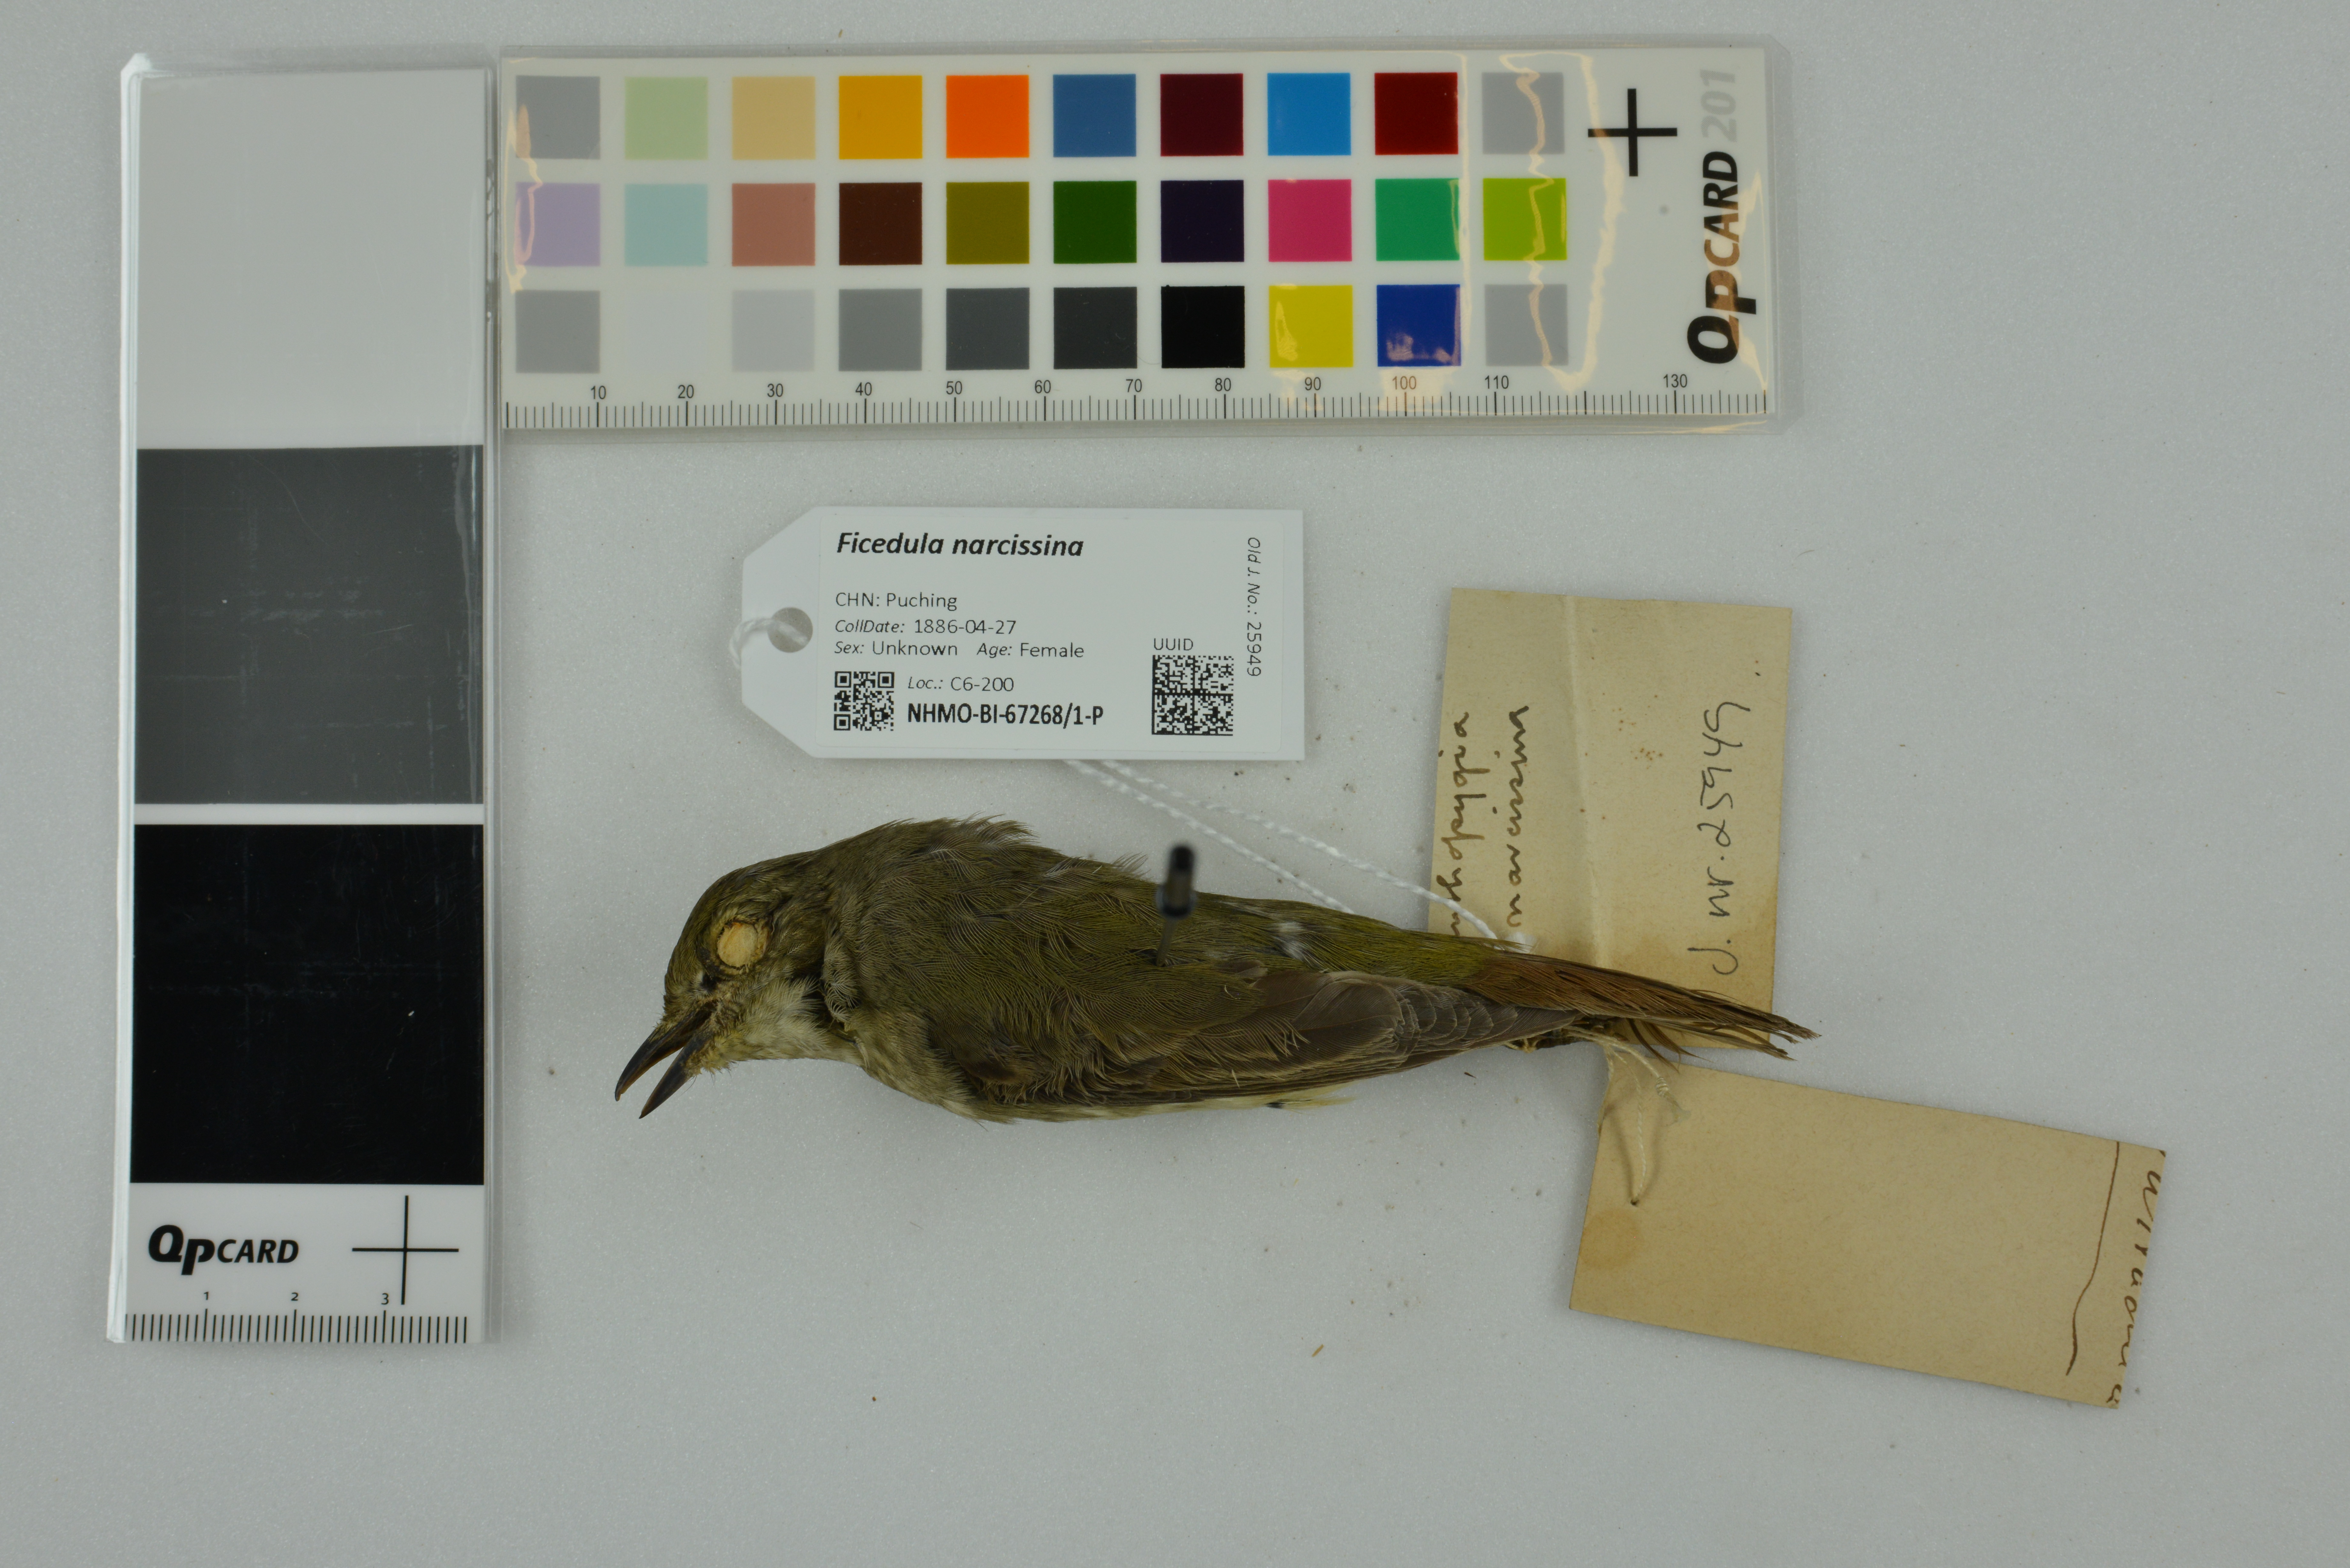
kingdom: Animalia
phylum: Chordata
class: Aves
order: Passeriformes
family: Muscicapidae
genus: Ficedula
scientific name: Ficedula narcissina
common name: Narcissus flycatcher
